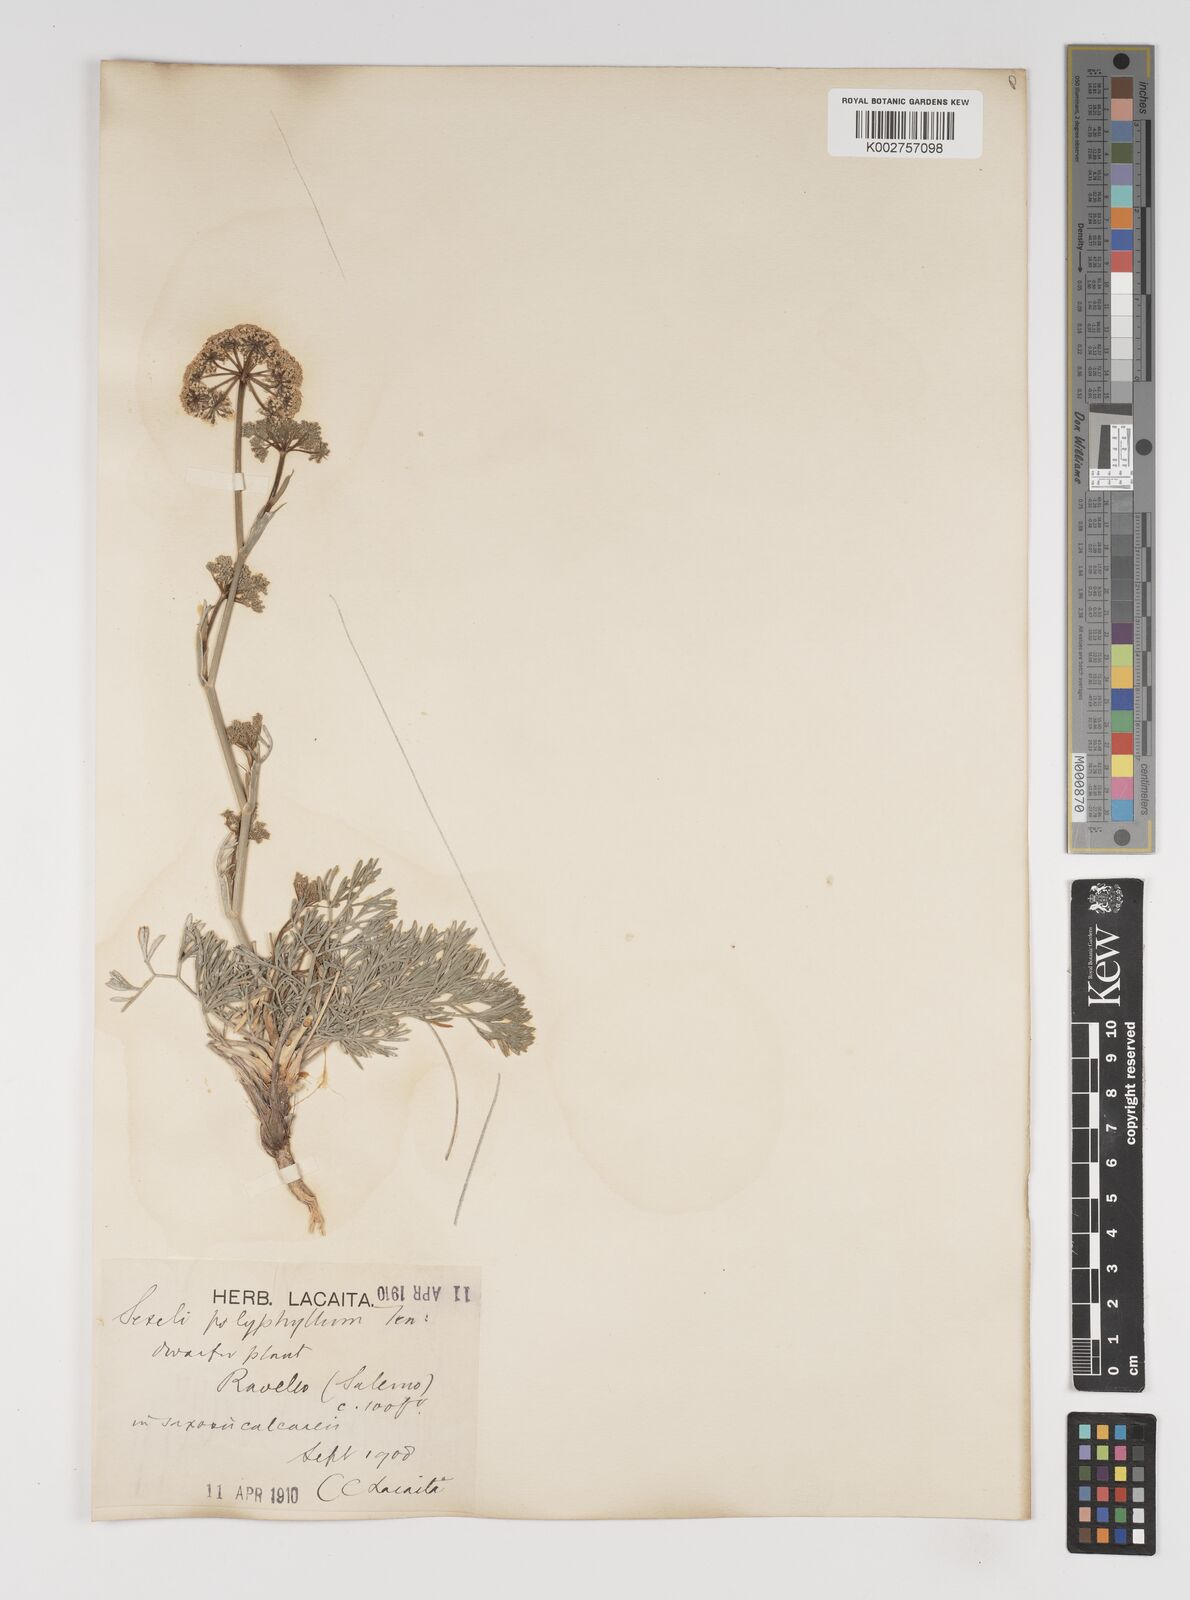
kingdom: Plantae
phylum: Tracheophyta
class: Magnoliopsida
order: Apiales
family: Apiaceae
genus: Seseli
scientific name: Seseli montanum
